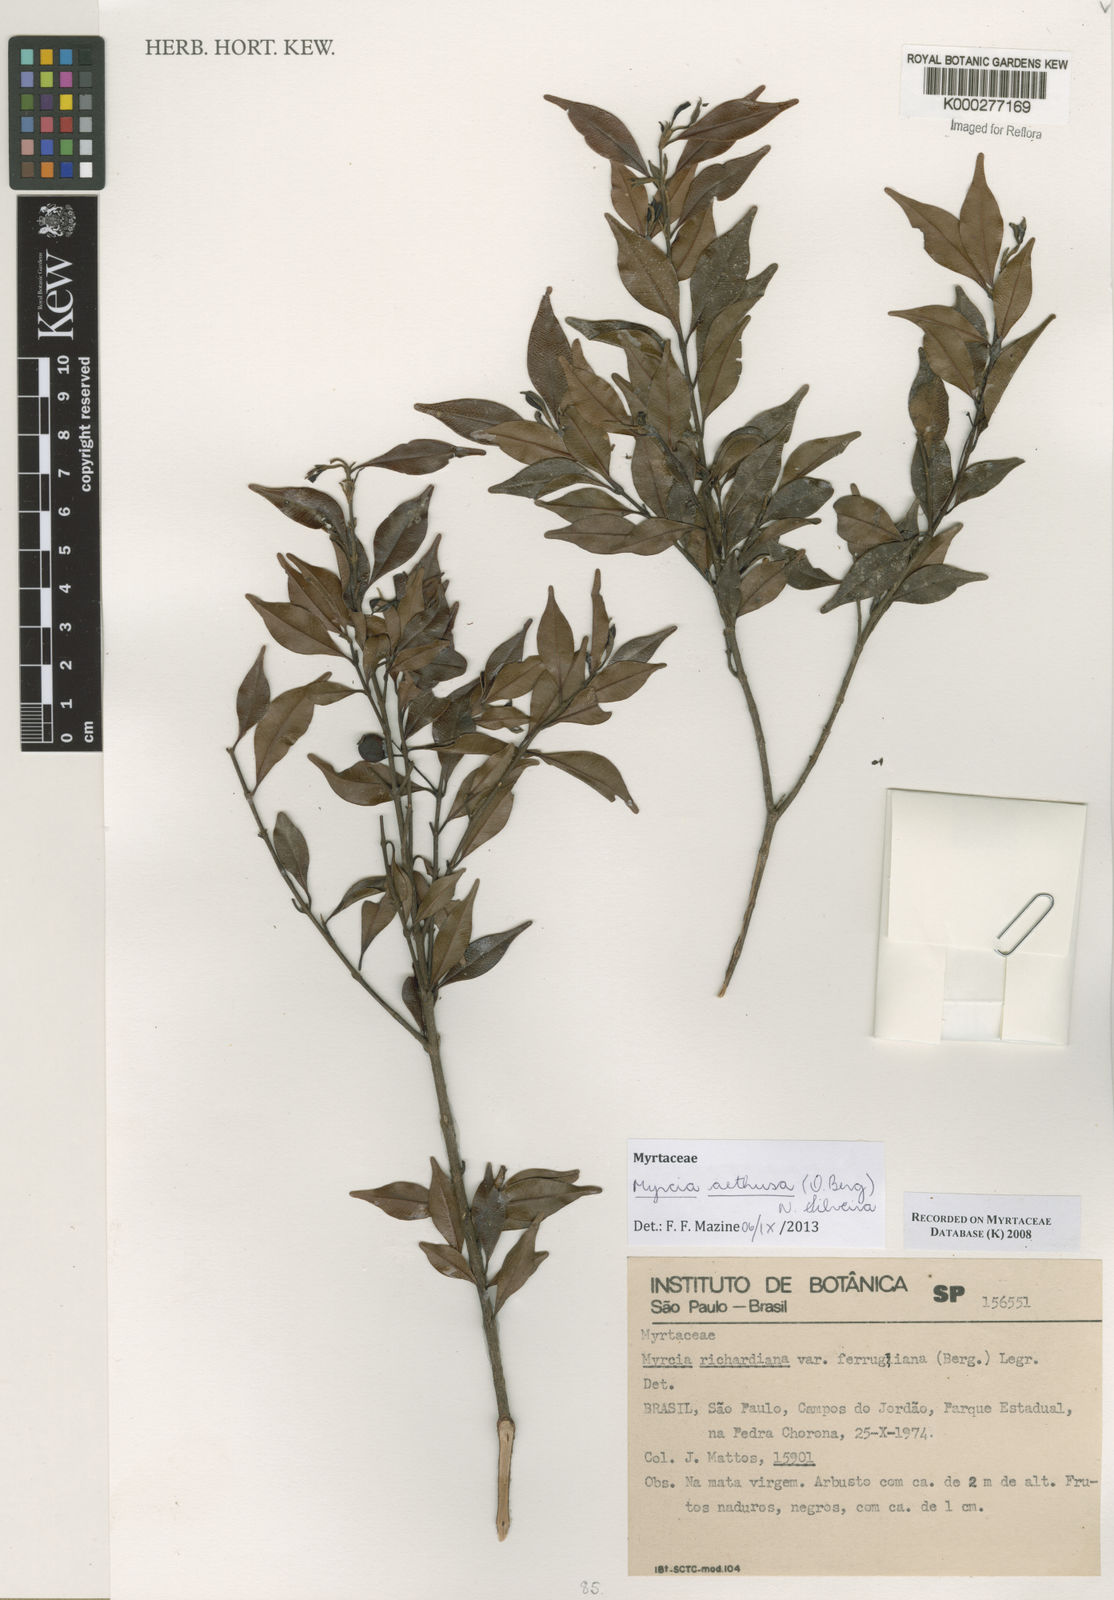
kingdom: Plantae
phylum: Tracheophyta
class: Magnoliopsida
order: Myrtales
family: Myrtaceae
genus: Myrcia
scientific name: Myrcia aethusa
